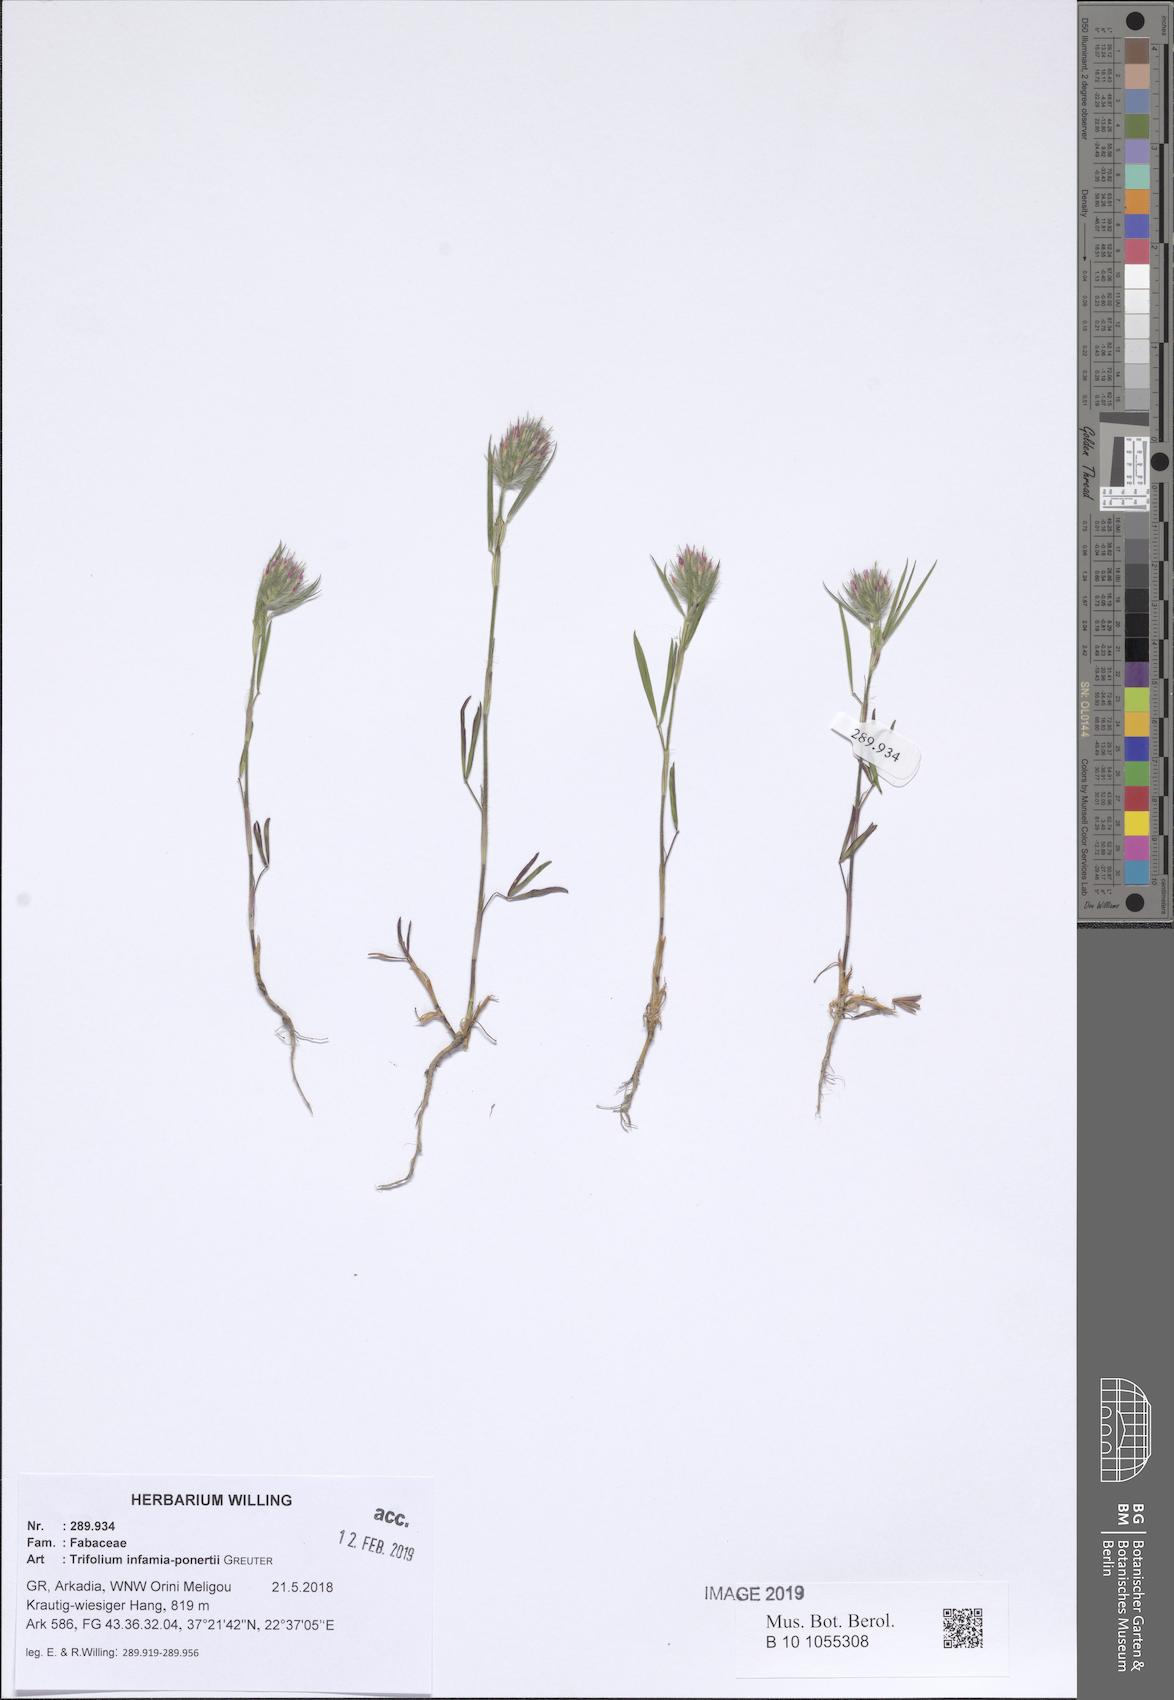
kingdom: Plantae
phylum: Tracheophyta
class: Magnoliopsida
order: Fabales
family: Fabaceae
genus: Trifolium
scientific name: Trifolium infamia-ponertii
